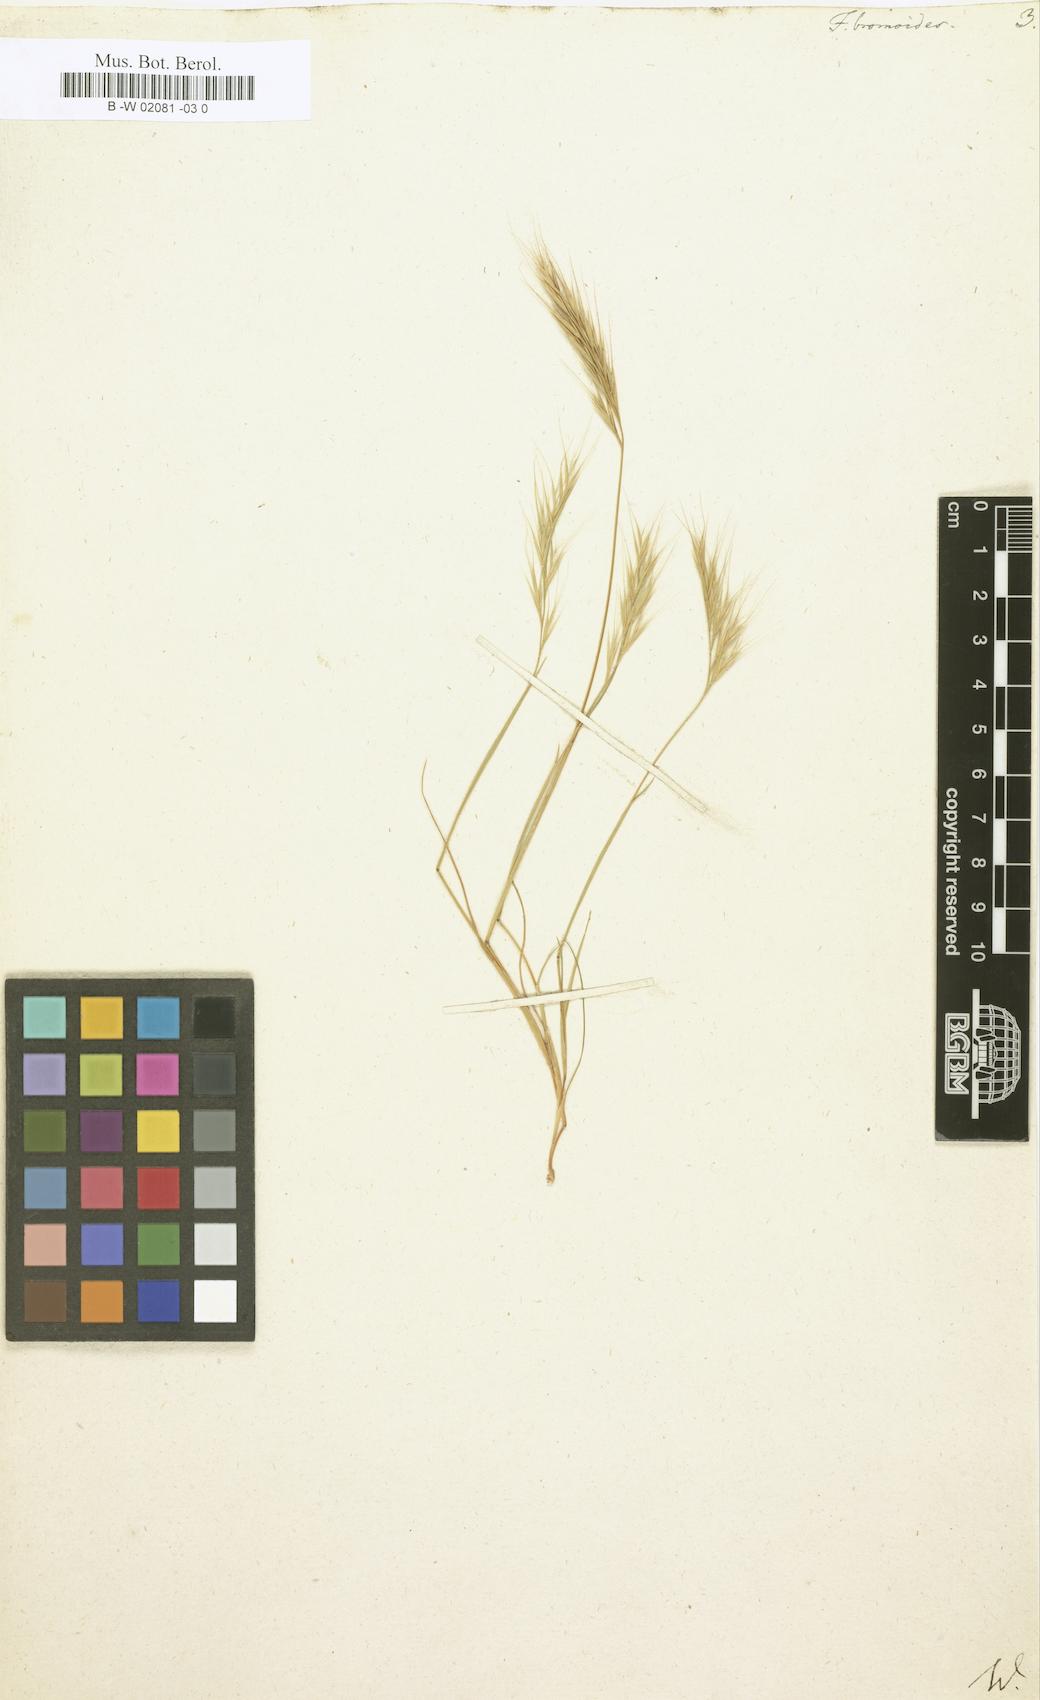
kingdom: Plantae
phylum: Tracheophyta
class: Liliopsida
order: Poales
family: Poaceae
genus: Festuca
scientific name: Festuca bromoides
